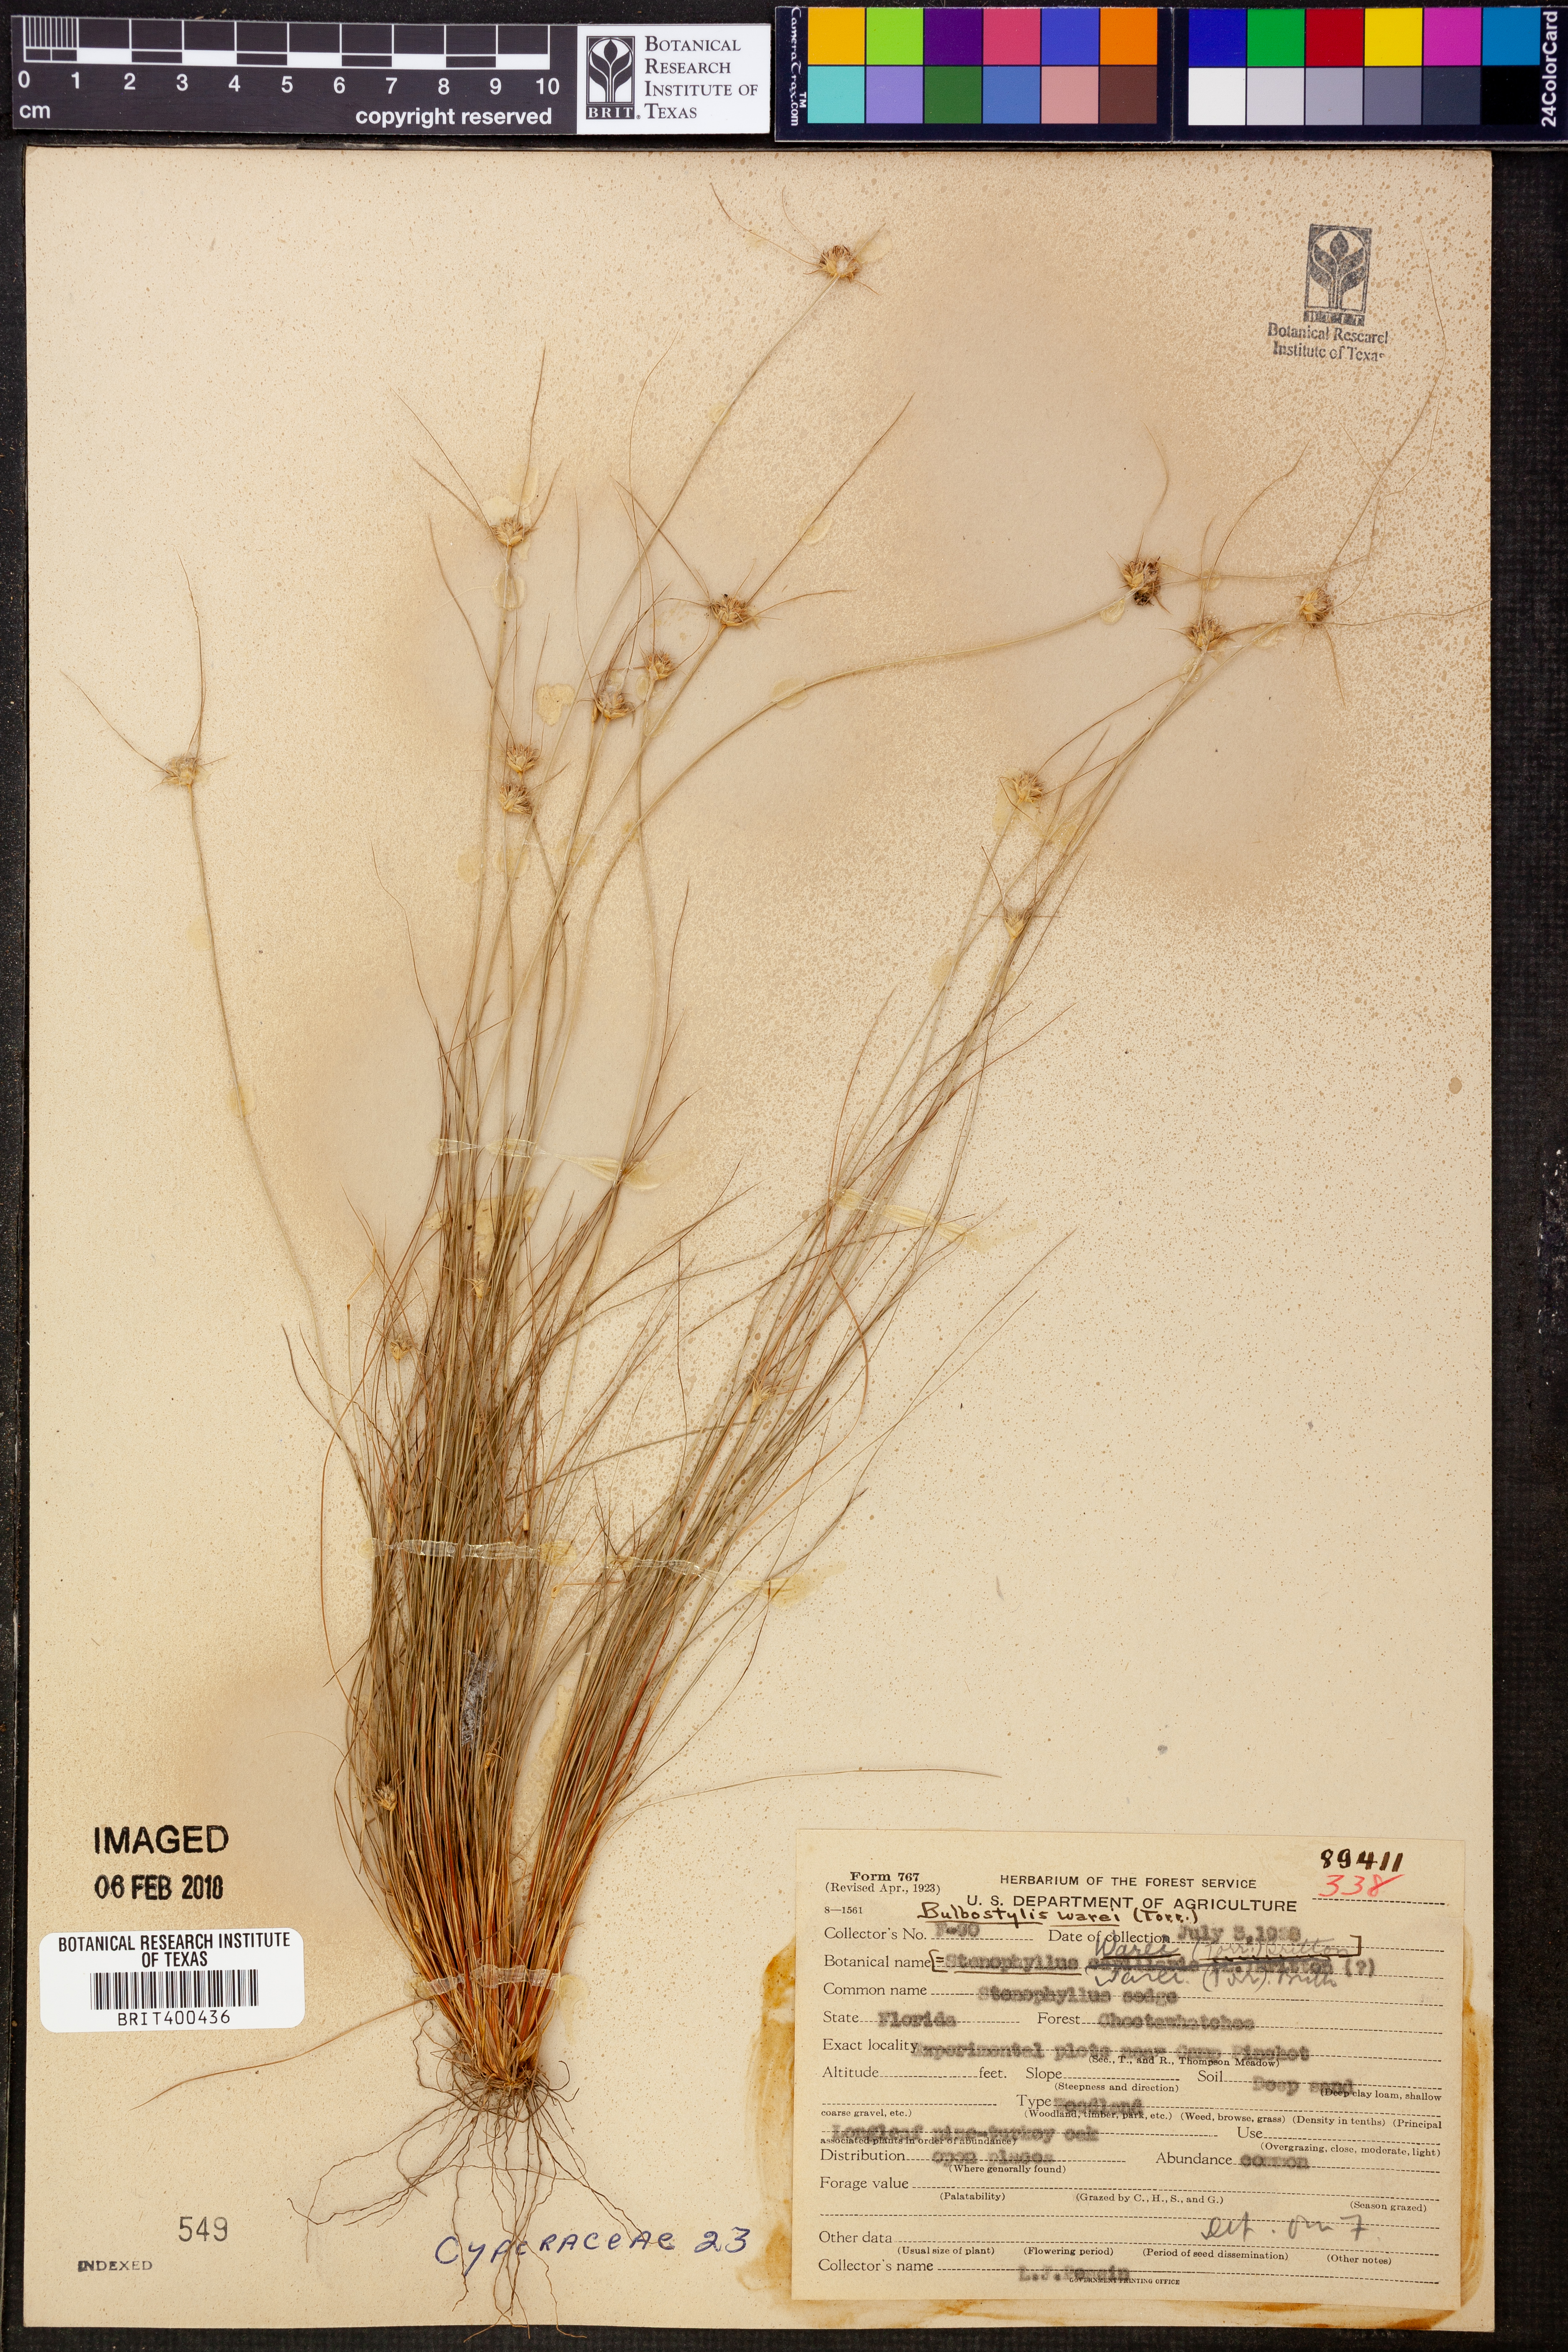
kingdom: Plantae
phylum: Tracheophyta
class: Liliopsida
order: Poales
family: Cyperaceae
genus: Bulbostylis
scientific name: Bulbostylis warei
